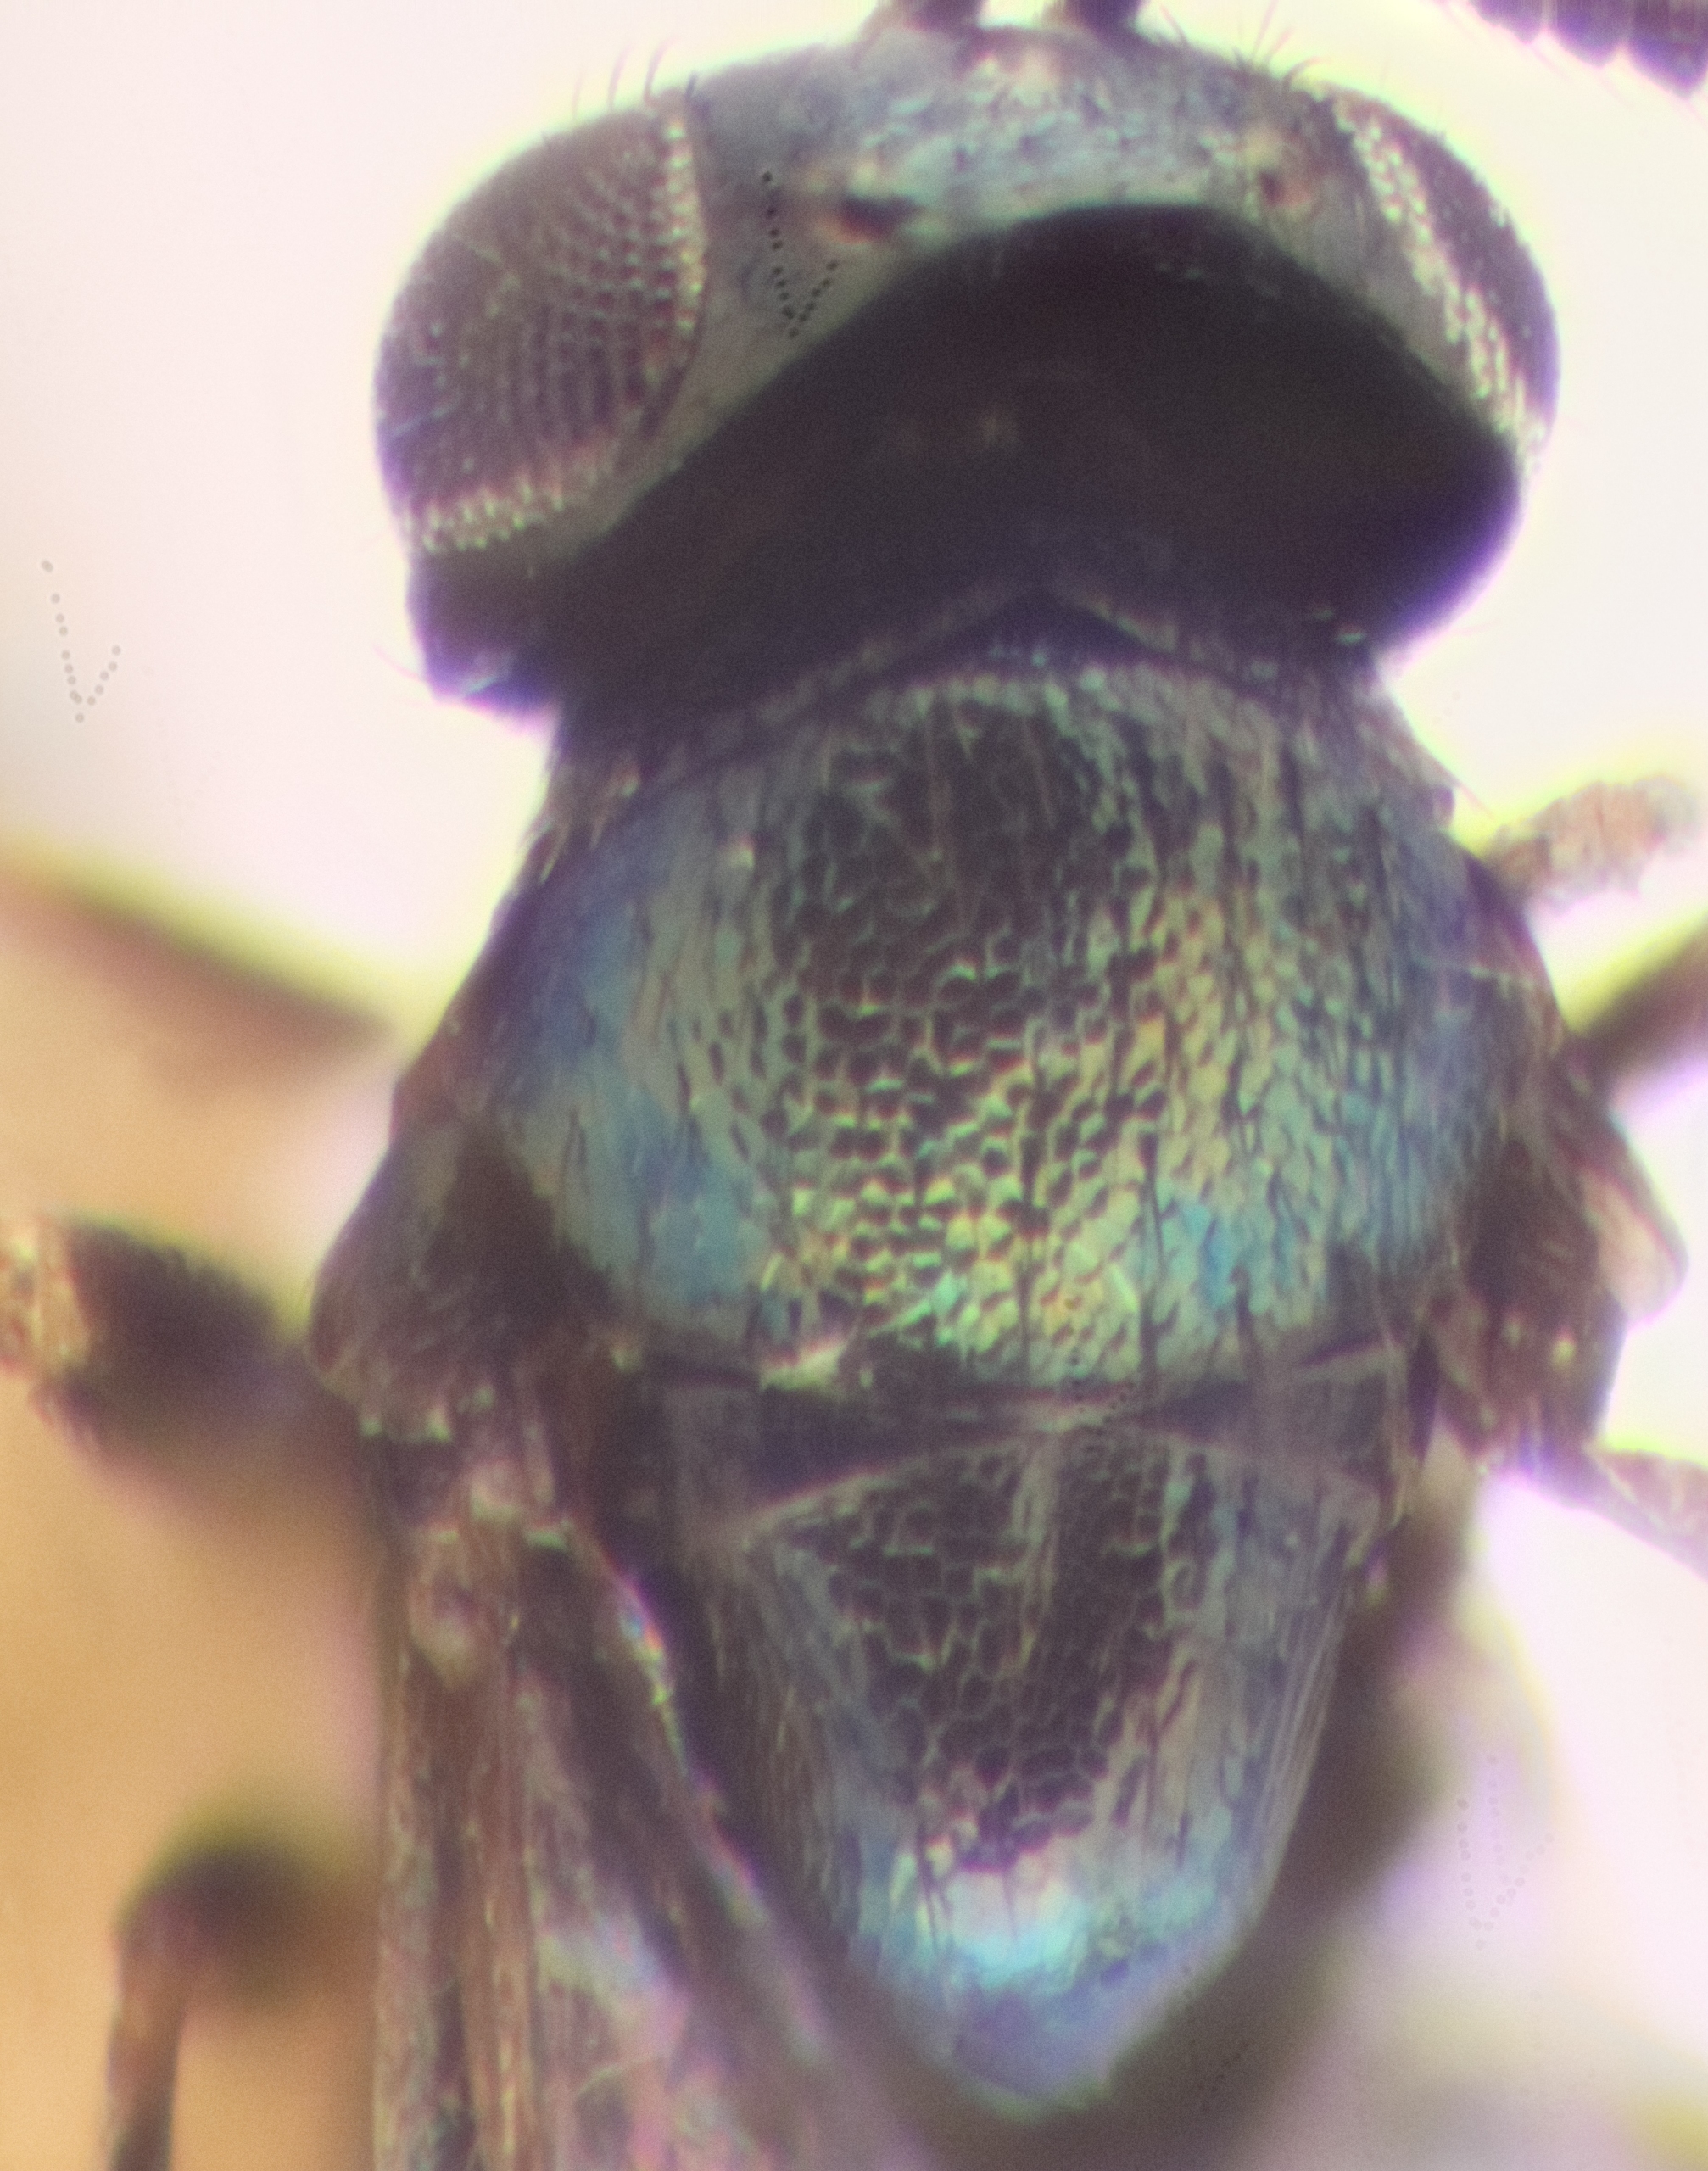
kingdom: Animalia
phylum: Arthropoda
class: Insecta
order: Hymenoptera
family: Encyrtidae
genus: Copidosoma
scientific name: Copidosoma floridanum
